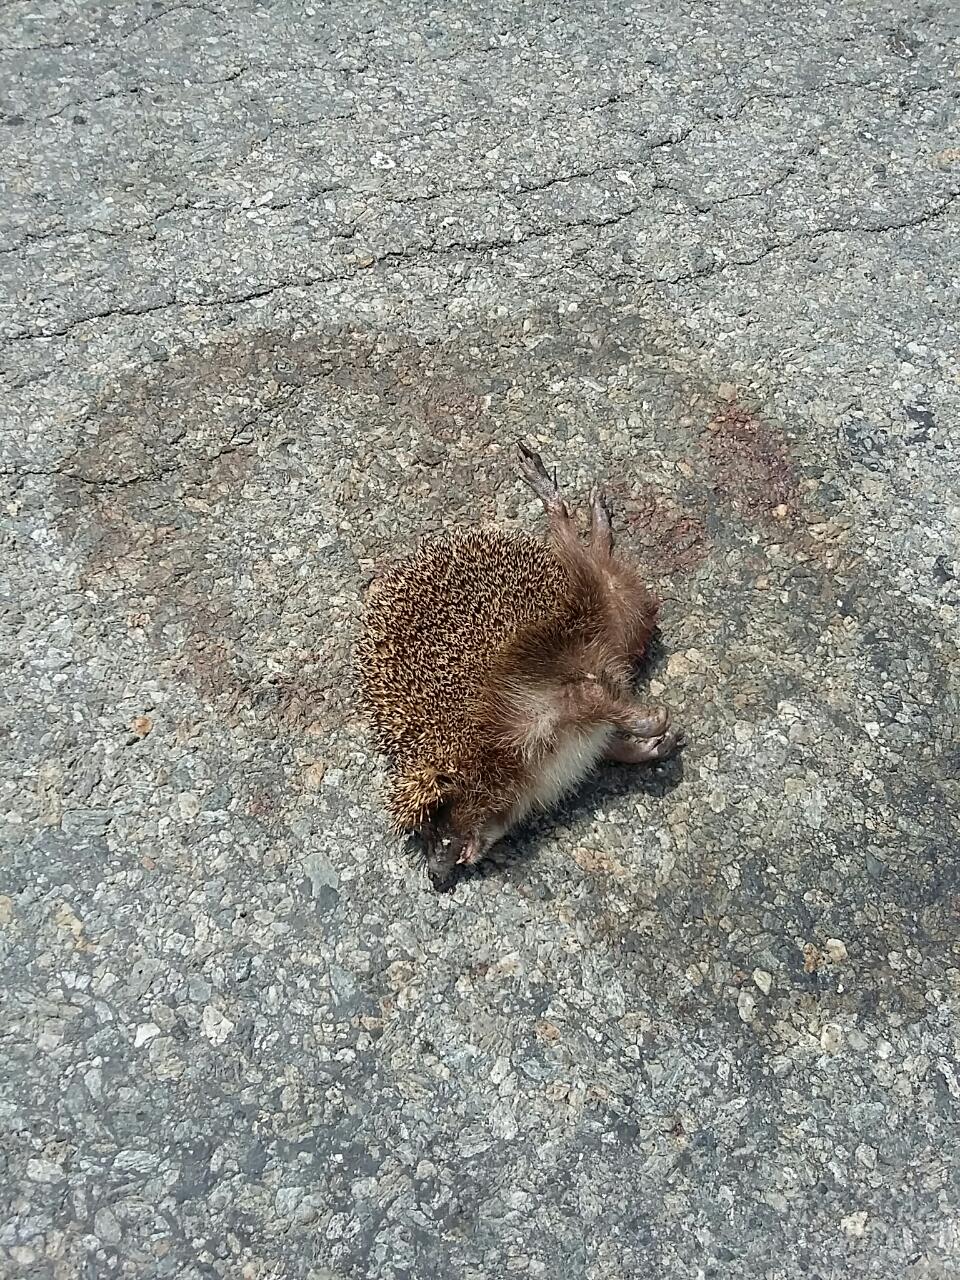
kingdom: Animalia
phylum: Chordata
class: Mammalia
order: Erinaceomorpha
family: Erinaceidae
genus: Erinaceus
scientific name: Erinaceus
